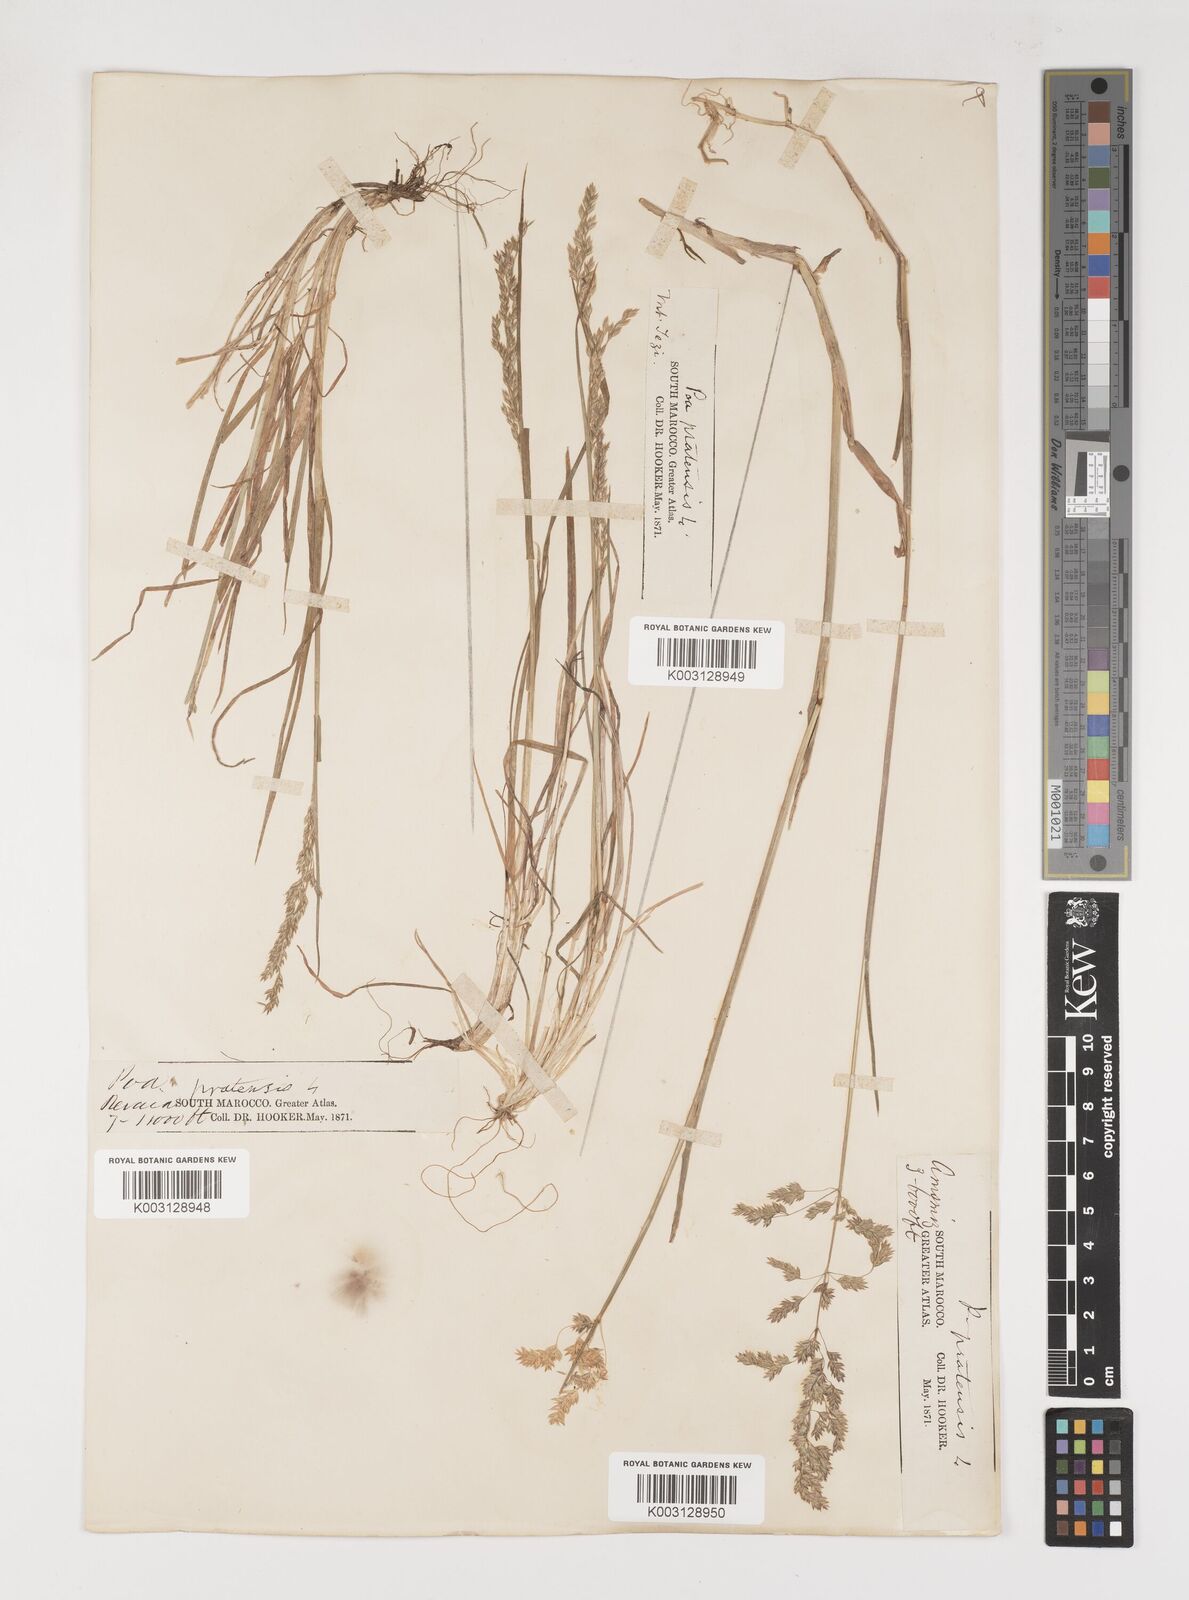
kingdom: Plantae
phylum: Tracheophyta
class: Liliopsida
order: Poales
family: Poaceae
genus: Poa
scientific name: Poa trivialis
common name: Rough bluegrass
